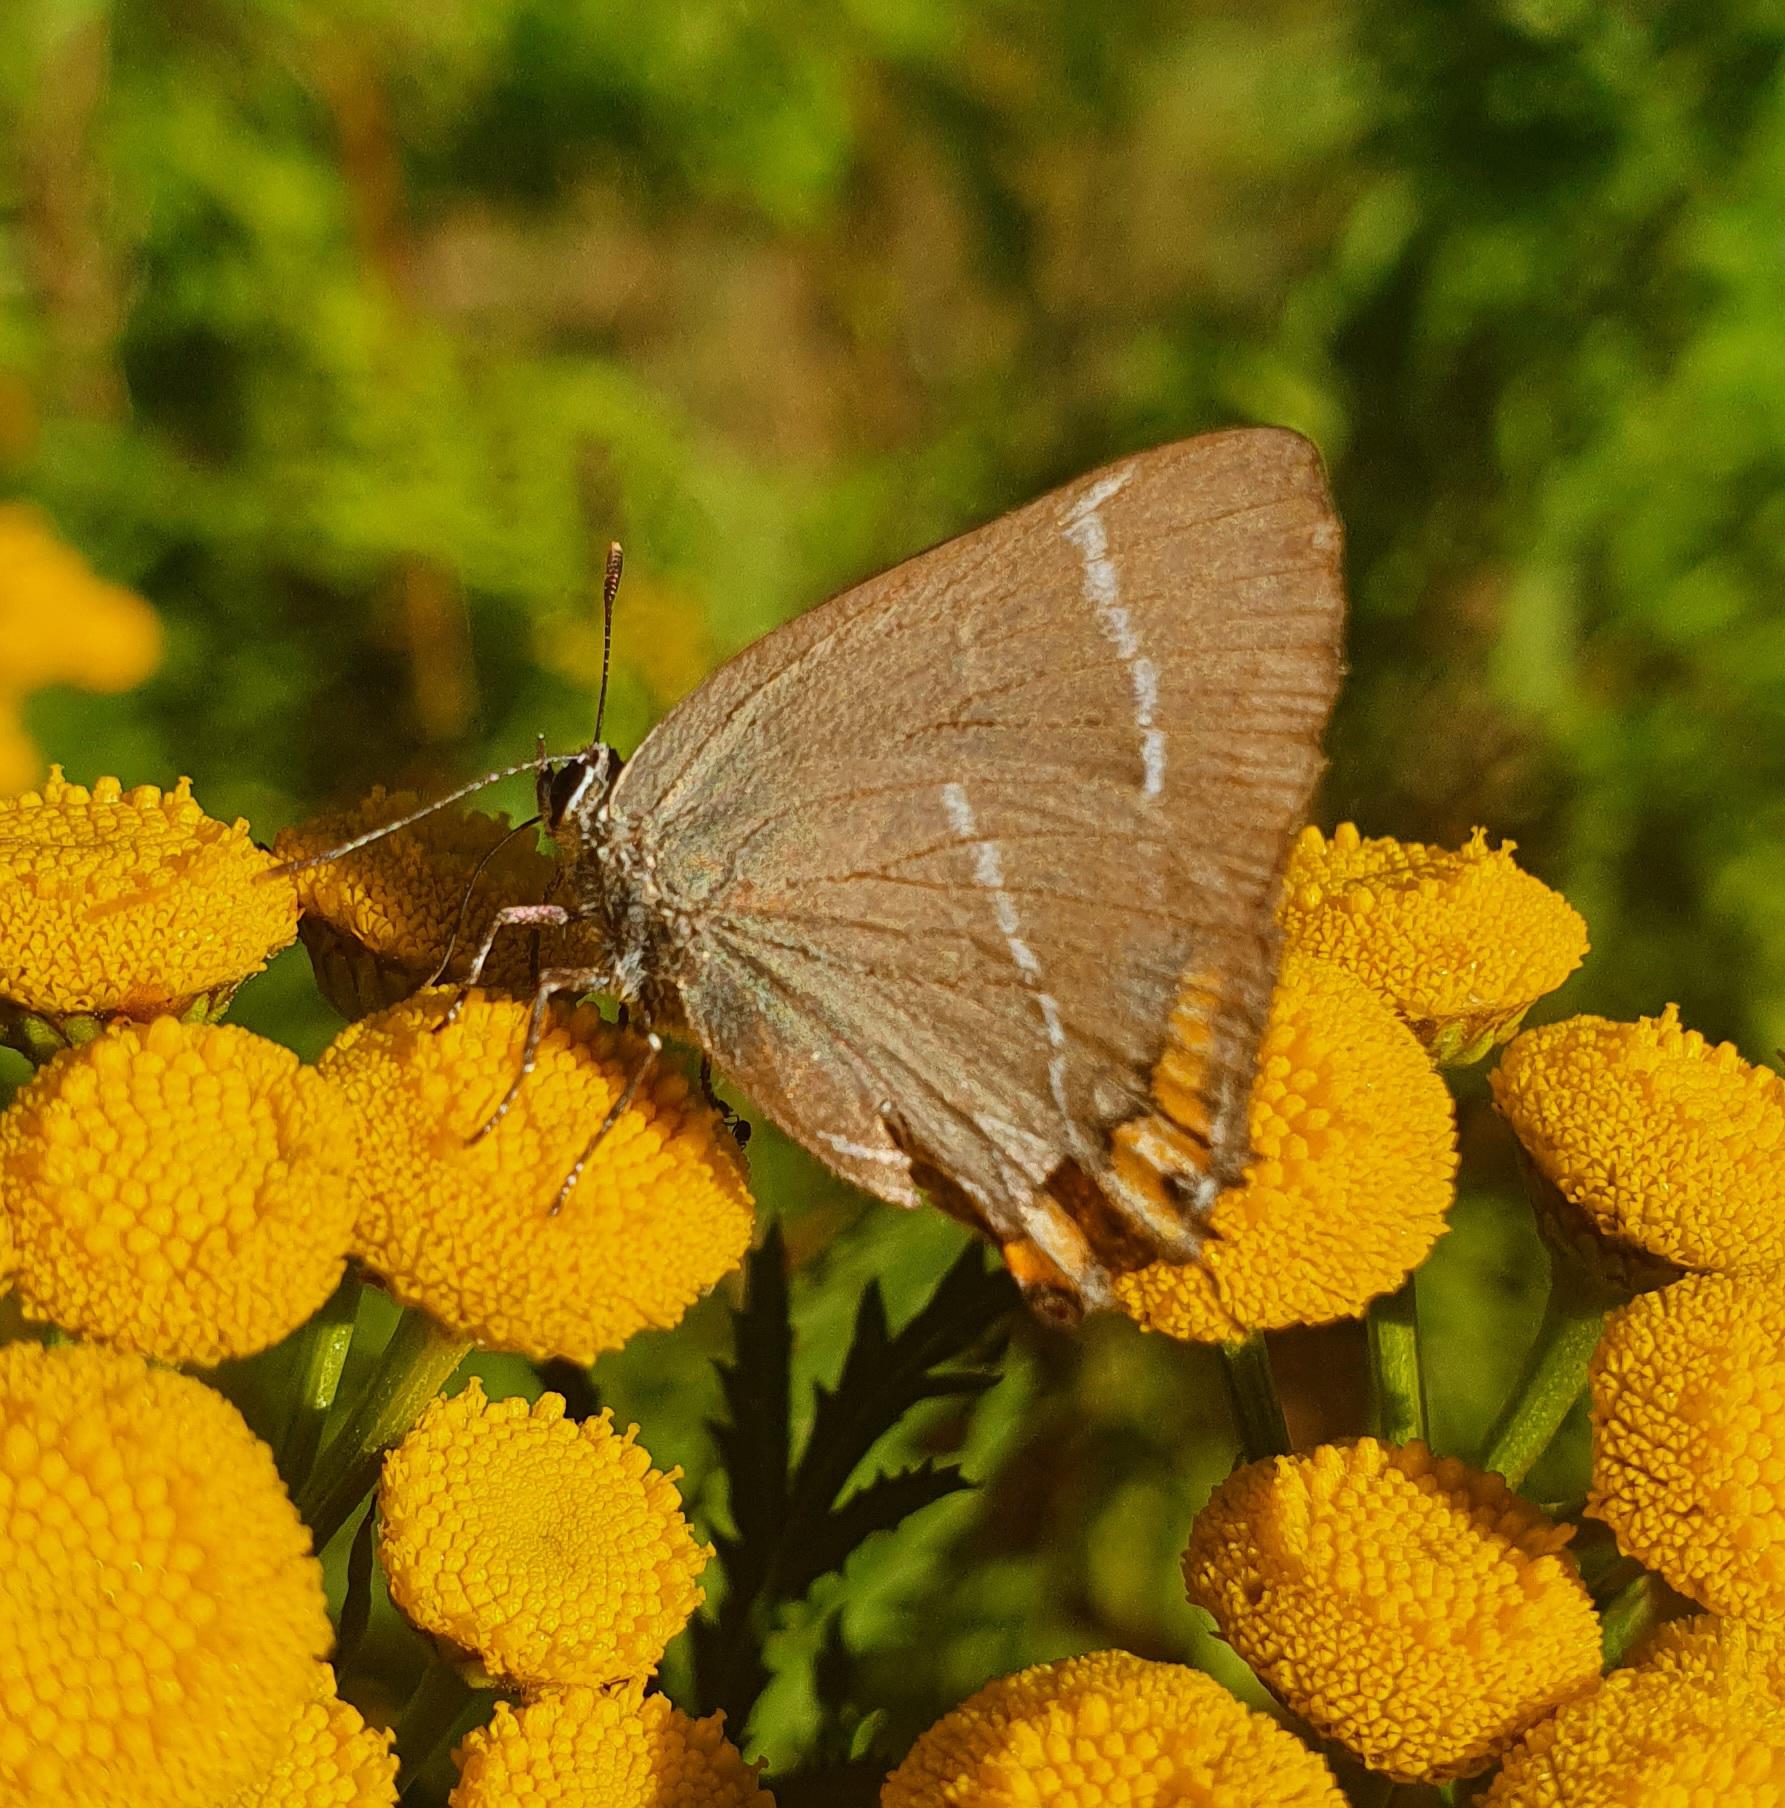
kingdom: Animalia
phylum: Arthropoda
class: Insecta
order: Lepidoptera
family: Lycaenidae
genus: Satyrium
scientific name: Satyrium w-album
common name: Det hvide W
